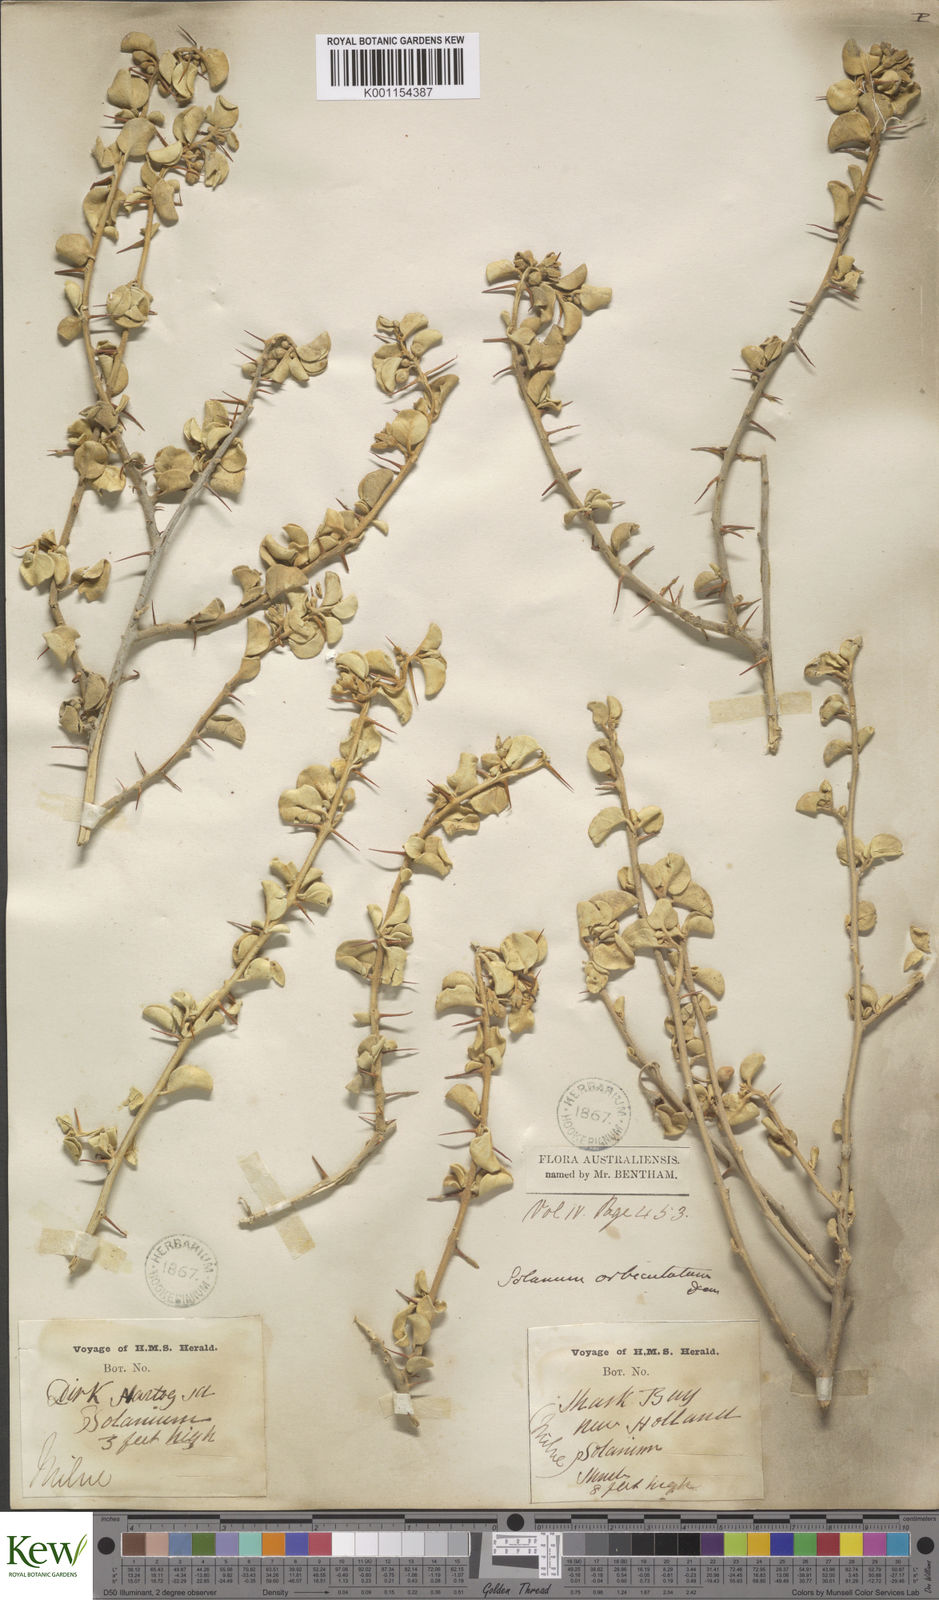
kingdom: Plantae
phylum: Tracheophyta
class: Magnoliopsida
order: Solanales
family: Solanaceae
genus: Solanum
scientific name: Solanum orbiculatum
